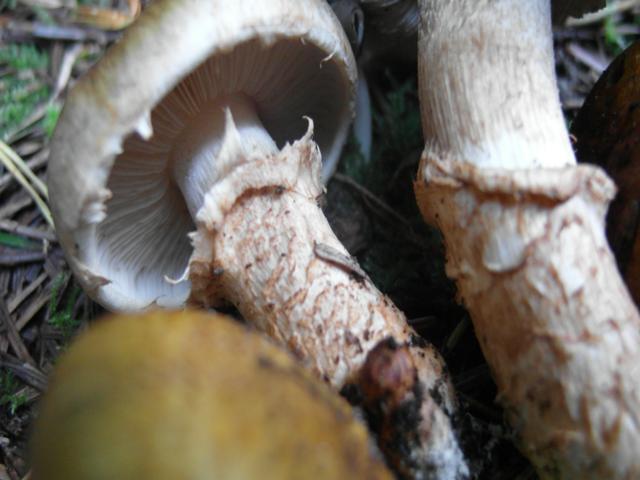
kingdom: Fungi
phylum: Basidiomycota
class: Agaricomycetes
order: Agaricales
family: Tricholomataceae
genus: Tricholoma
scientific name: Tricholoma focale
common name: halsbånd-ridderhat
